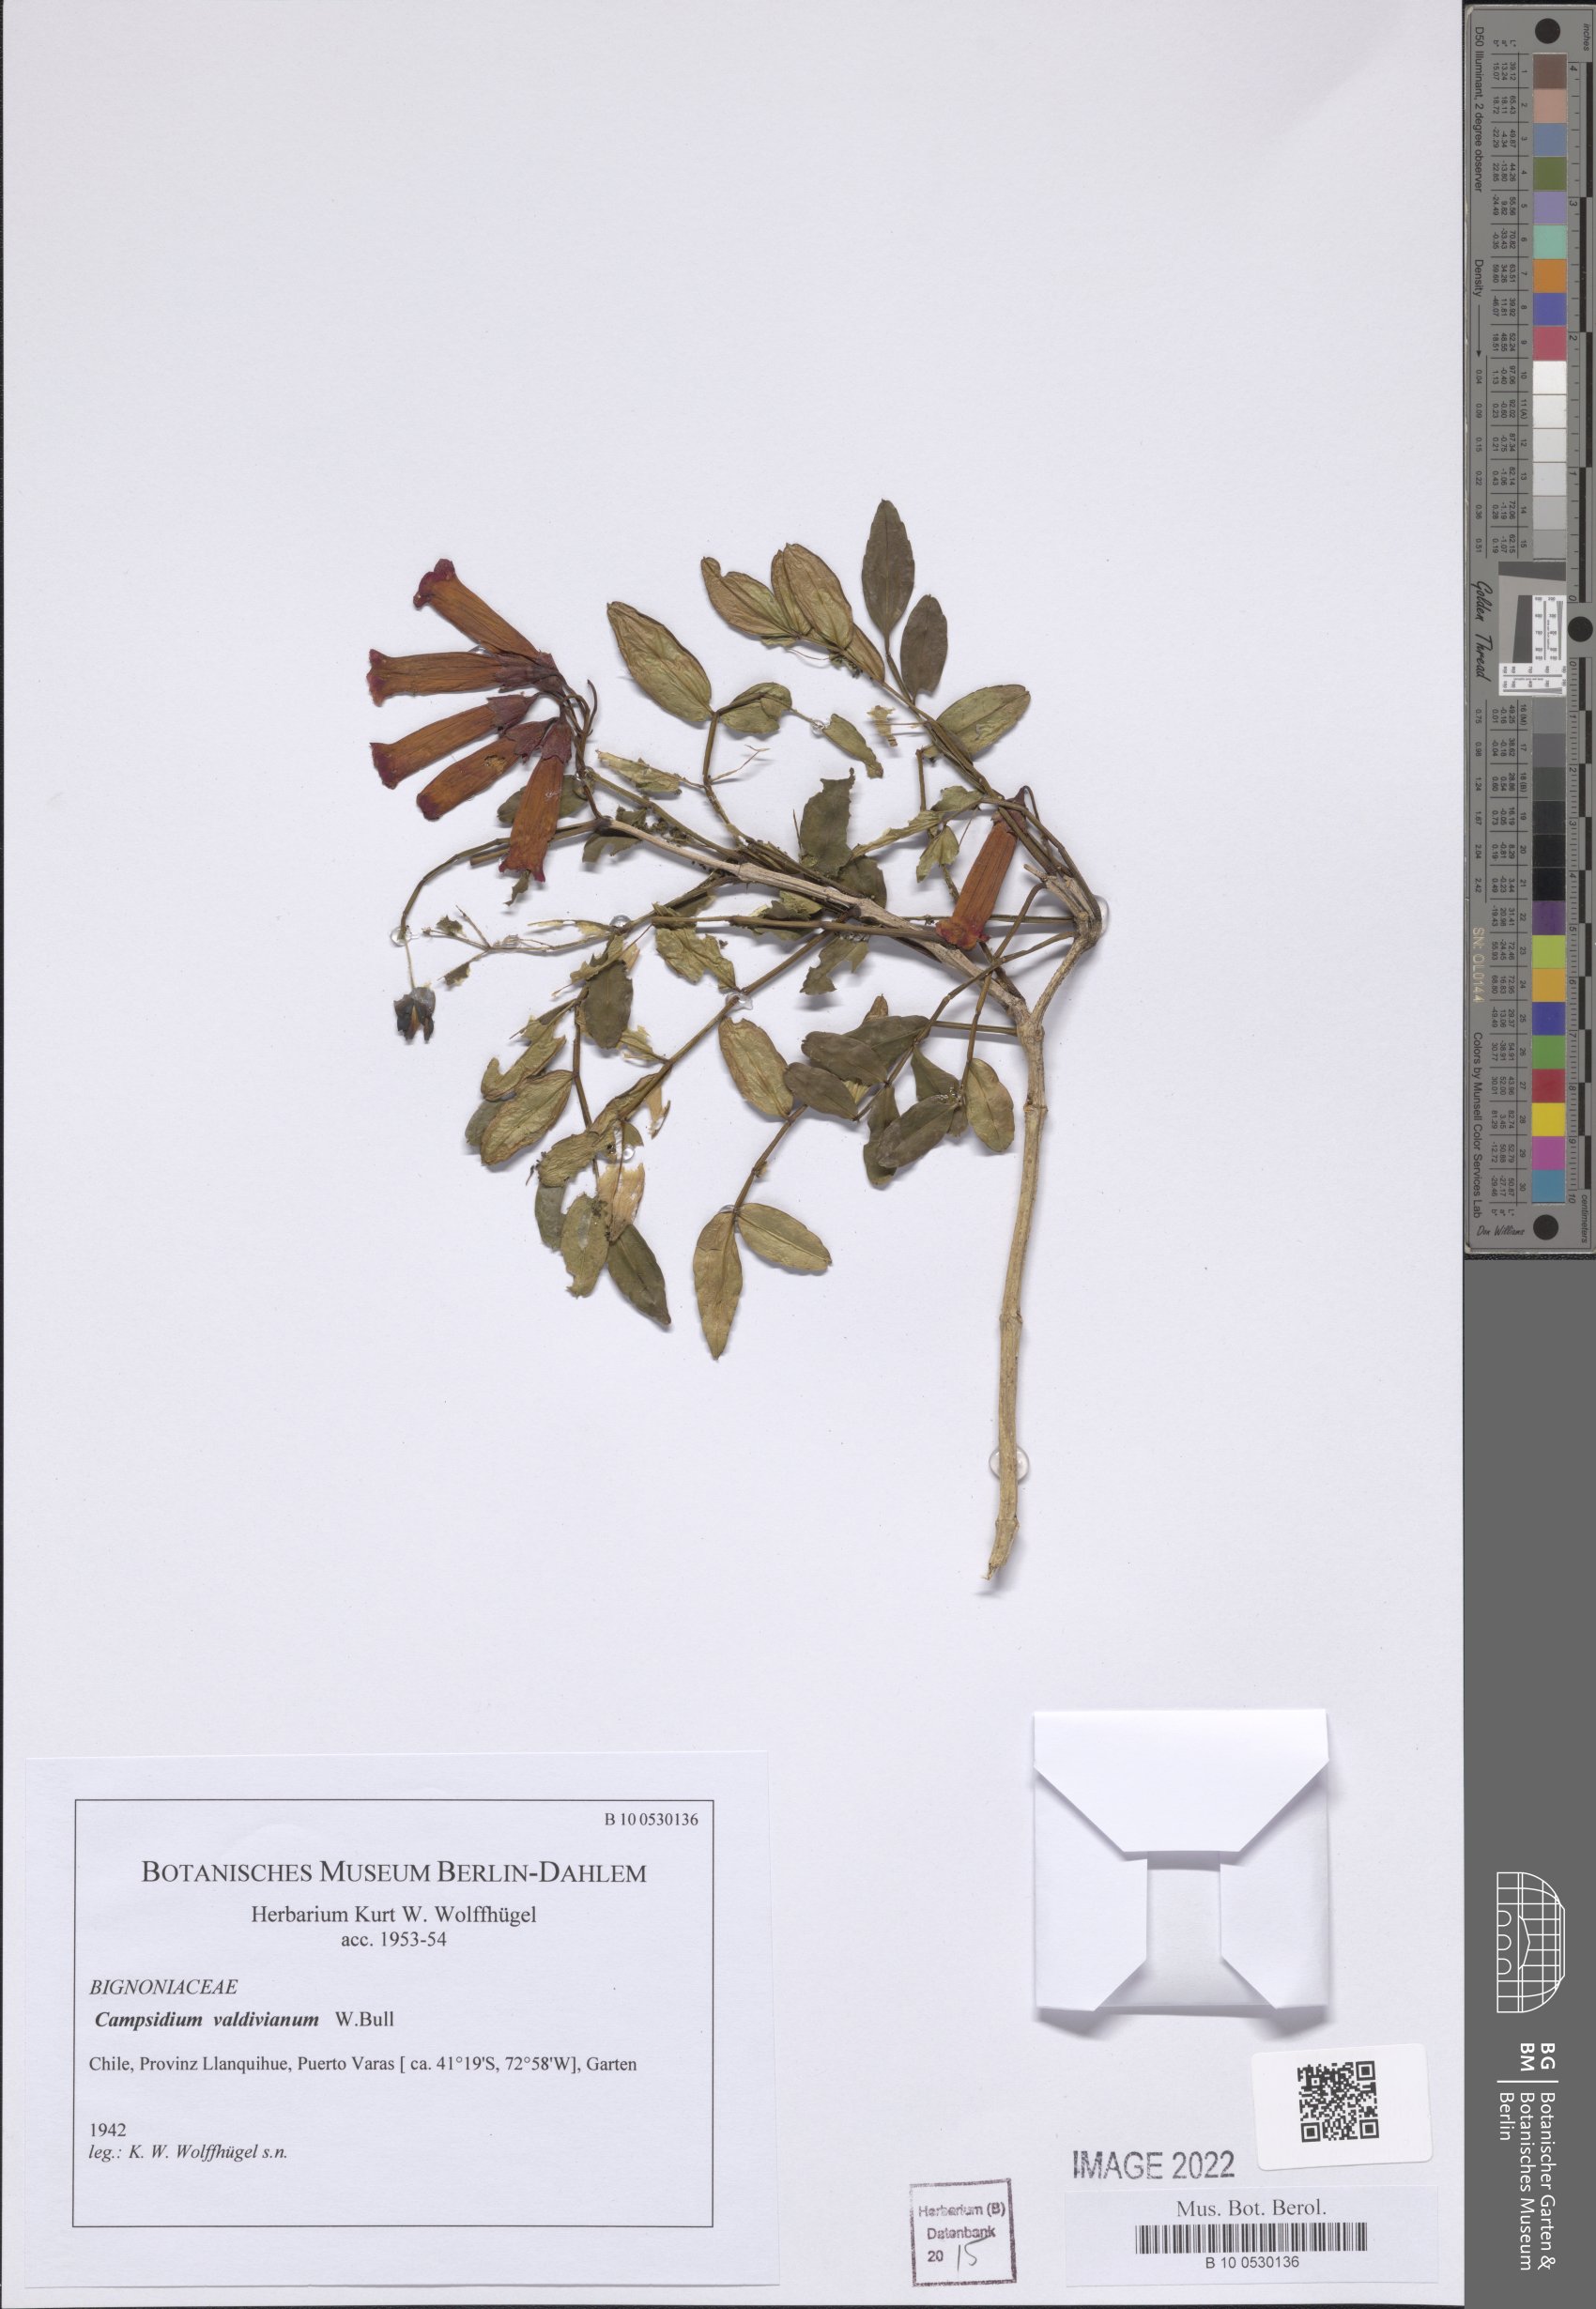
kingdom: Plantae
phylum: Tracheophyta
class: Magnoliopsida
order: Lamiales
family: Bignoniaceae
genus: Campsidium
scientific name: Campsidium valdivianum
